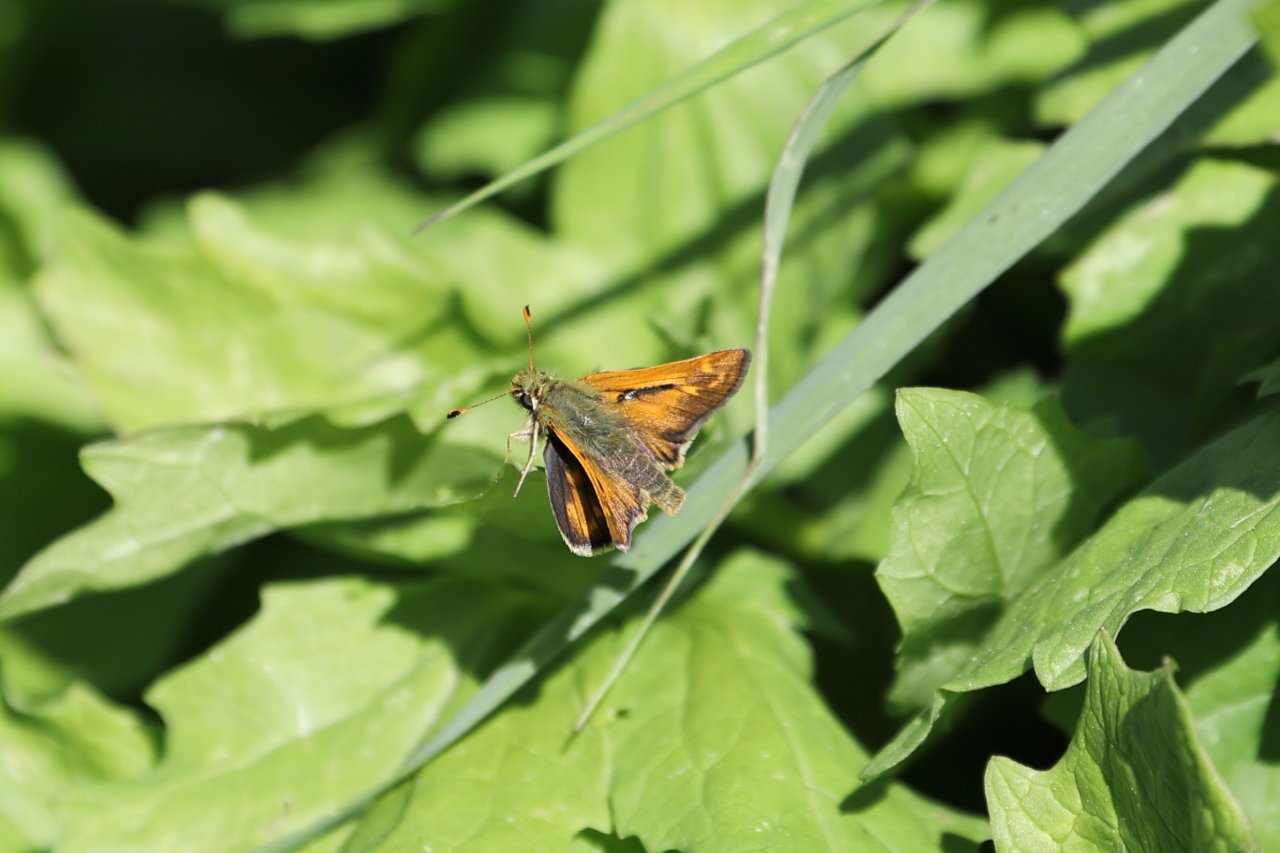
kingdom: Animalia
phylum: Arthropoda
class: Insecta
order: Lepidoptera
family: Hesperiidae
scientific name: Hesperiidae
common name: Skippers
